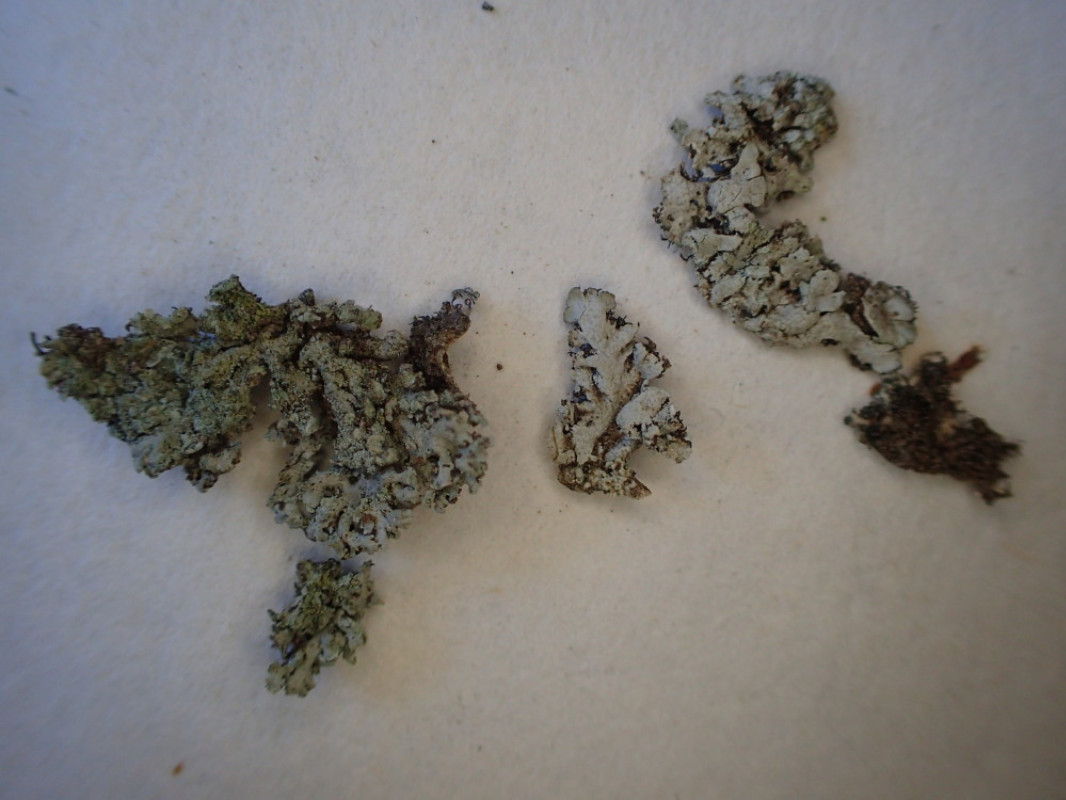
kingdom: Fungi
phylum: Ascomycota
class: Lecanoromycetes
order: Caliciales
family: Physciaceae
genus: Physcia
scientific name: Physcia dubia
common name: fuglestens-rosetlav
